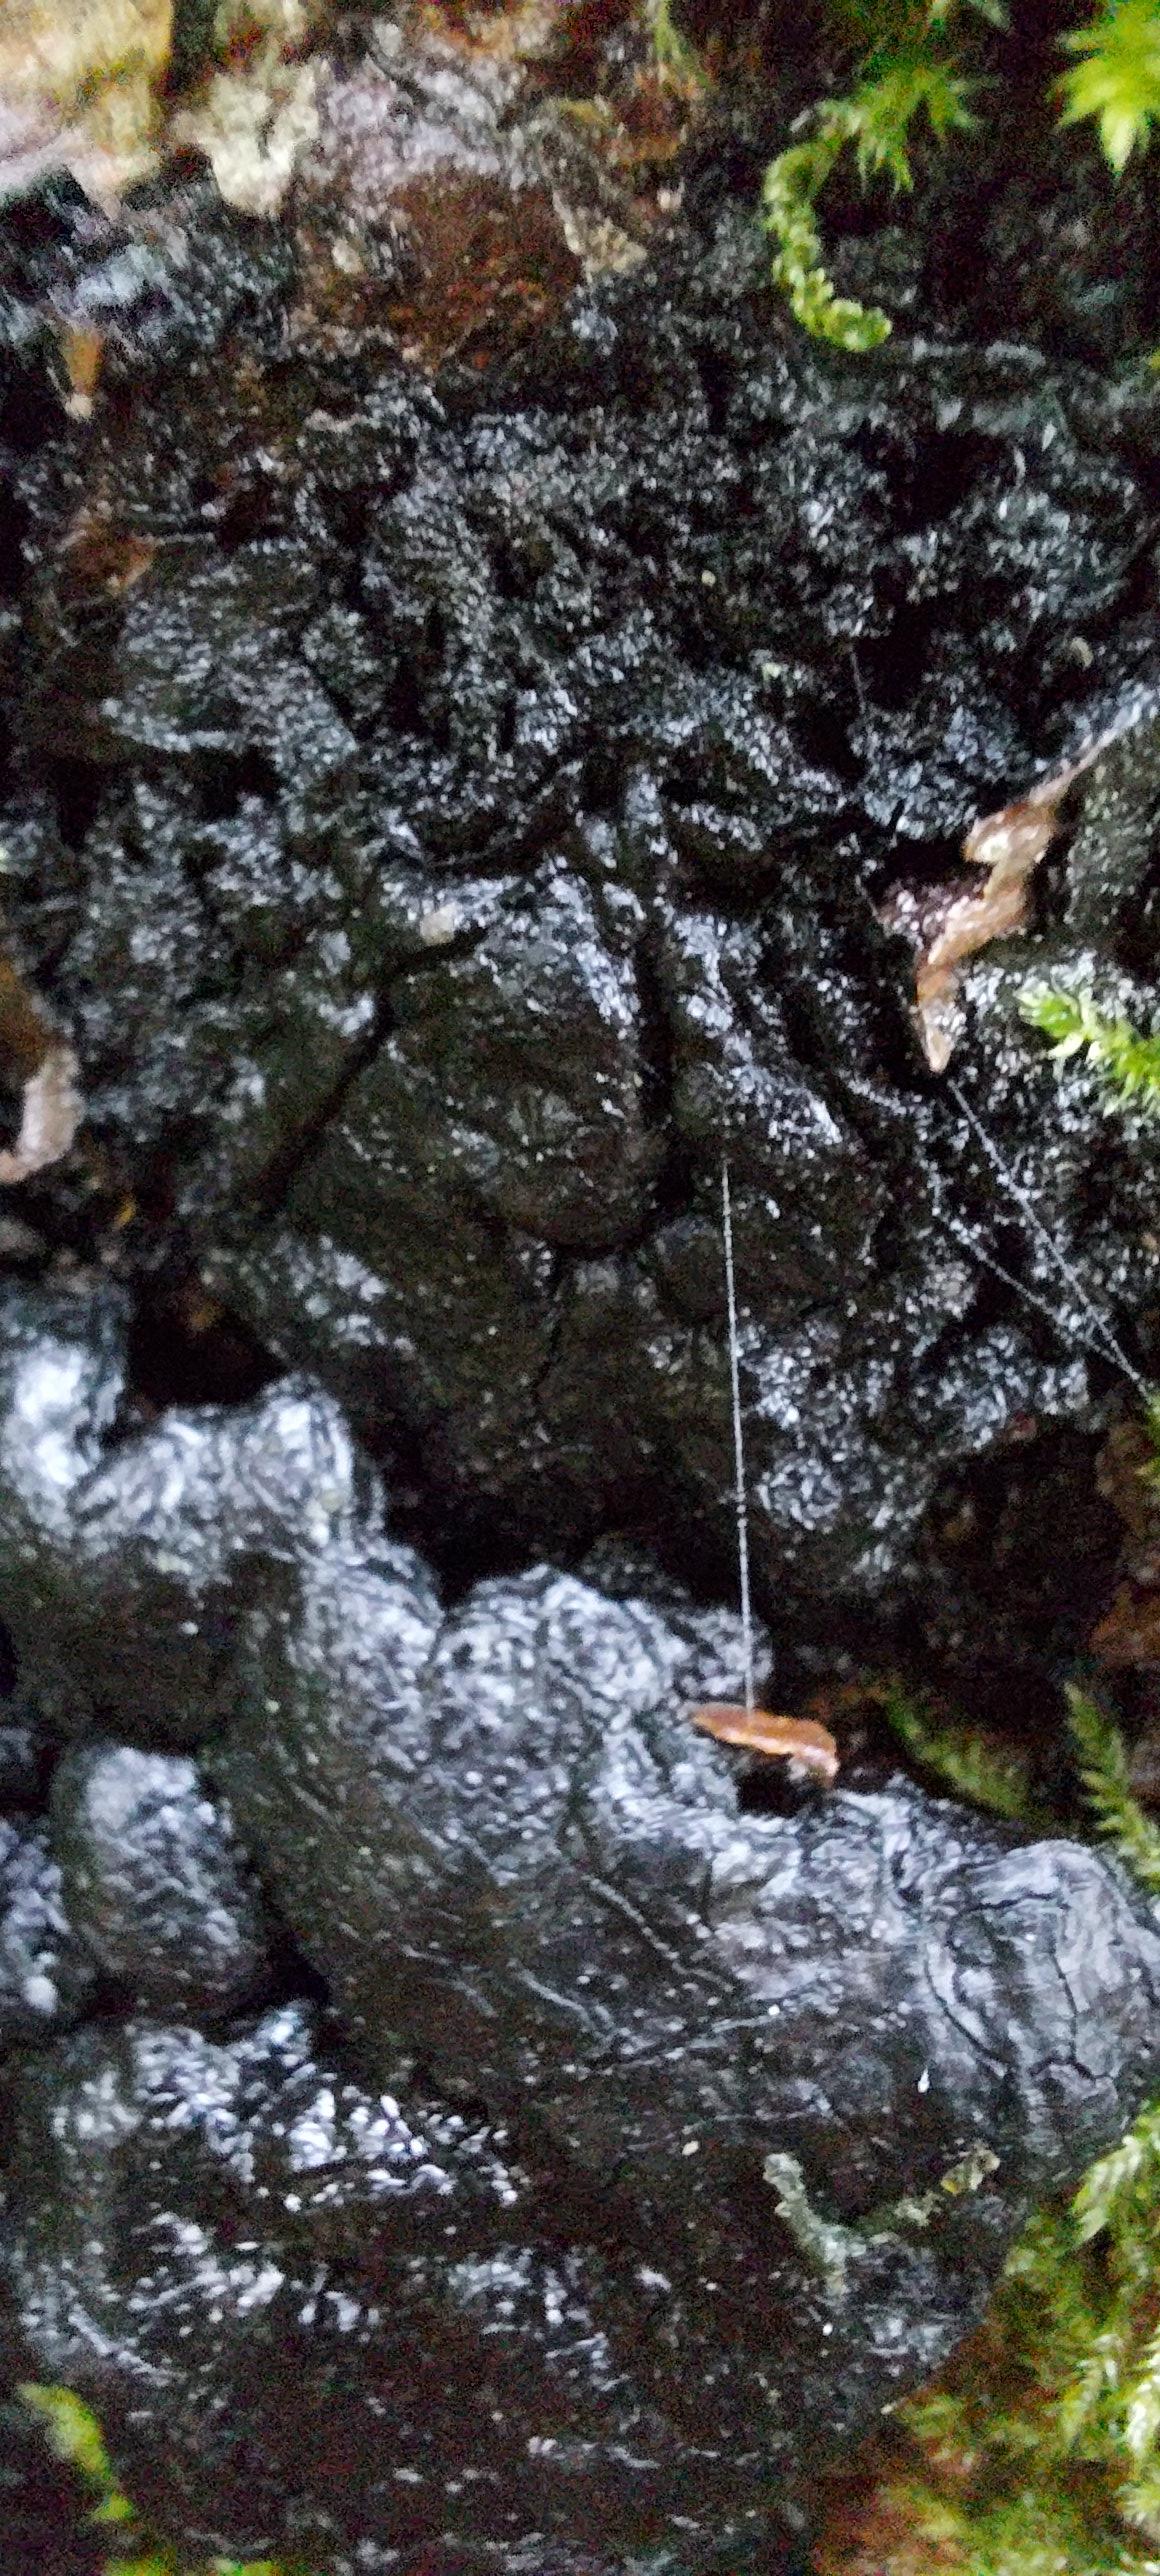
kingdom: Fungi
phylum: Ascomycota
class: Sordariomycetes
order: Xylariales
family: Xylariaceae
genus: Kretzschmaria
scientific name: Kretzschmaria deusta
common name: stor kulsvamp
